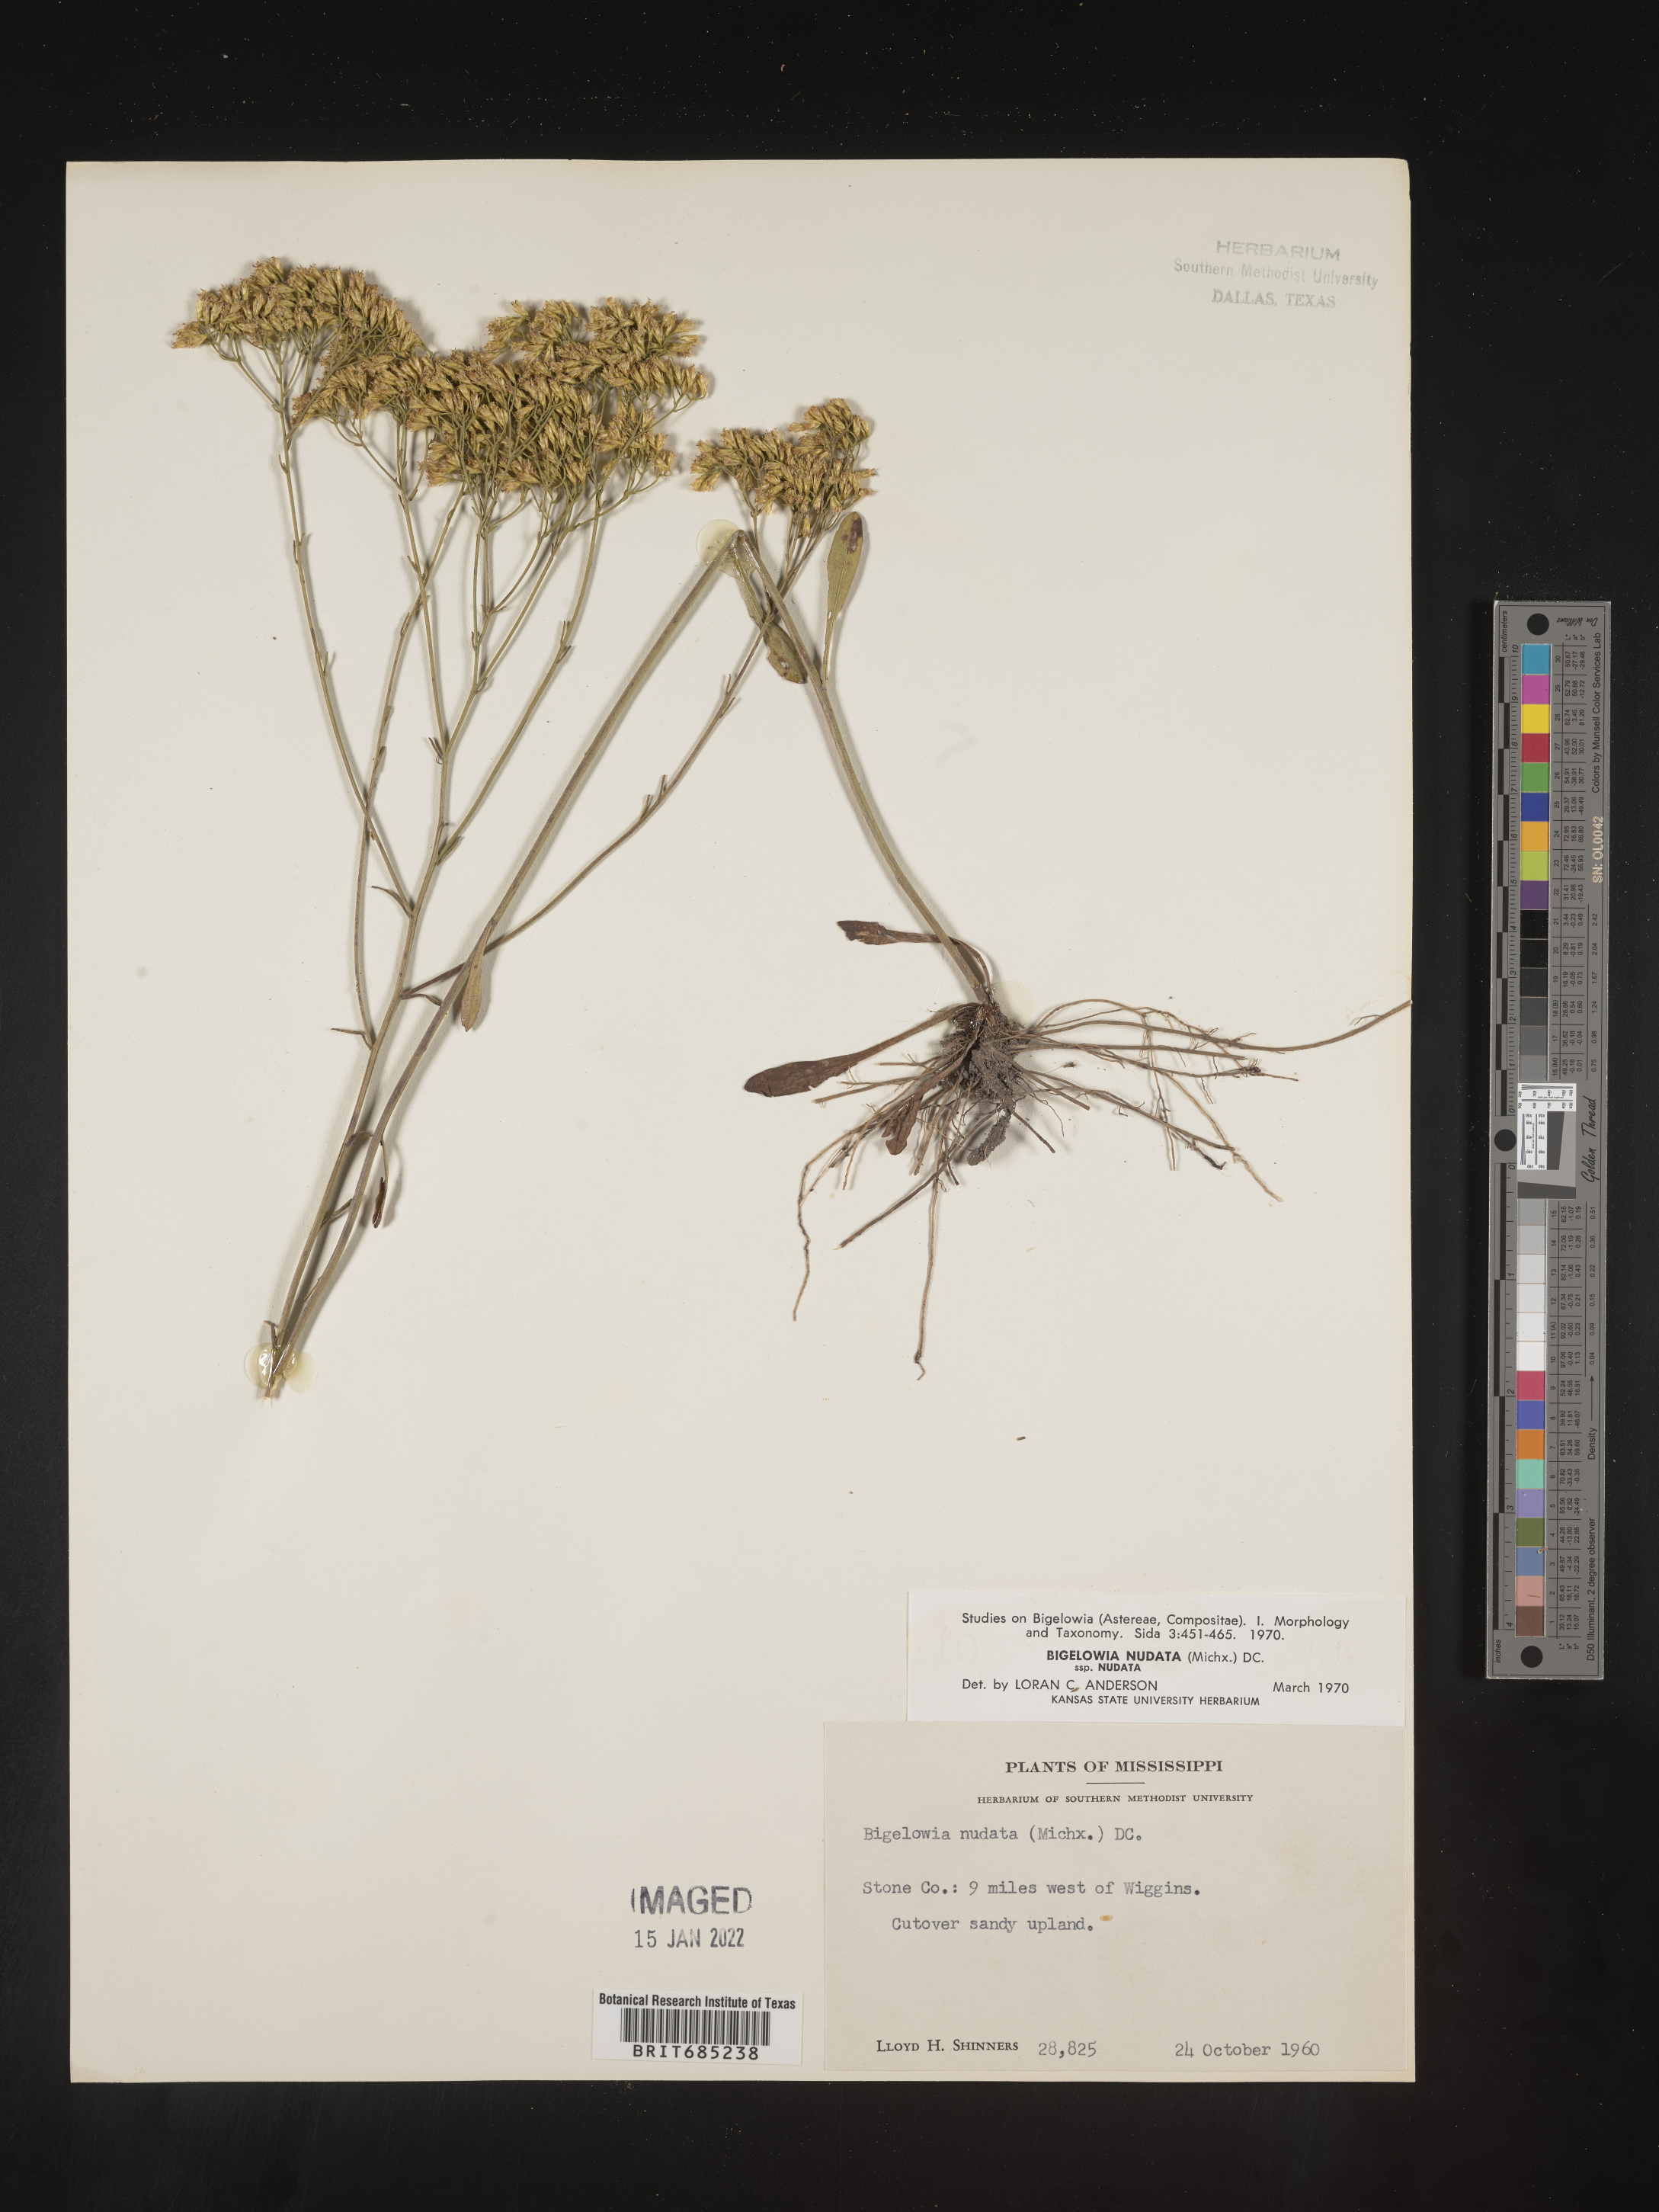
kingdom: Plantae
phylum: Tracheophyta
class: Magnoliopsida
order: Asterales
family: Asteraceae
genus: Bigelowia
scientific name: Bigelowia nudata
